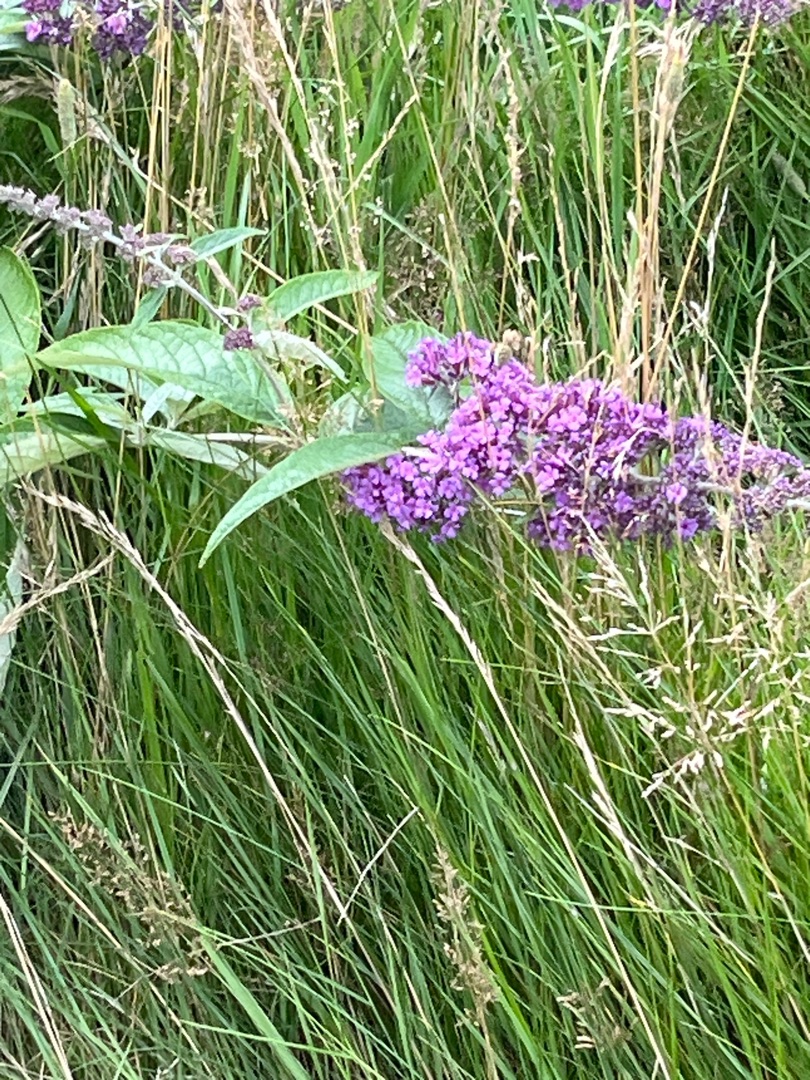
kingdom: Plantae
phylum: Tracheophyta
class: Magnoliopsida
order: Lamiales
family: Scrophulariaceae
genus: Buddleja
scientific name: Buddleja davidii
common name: Sommerfuglebusk
